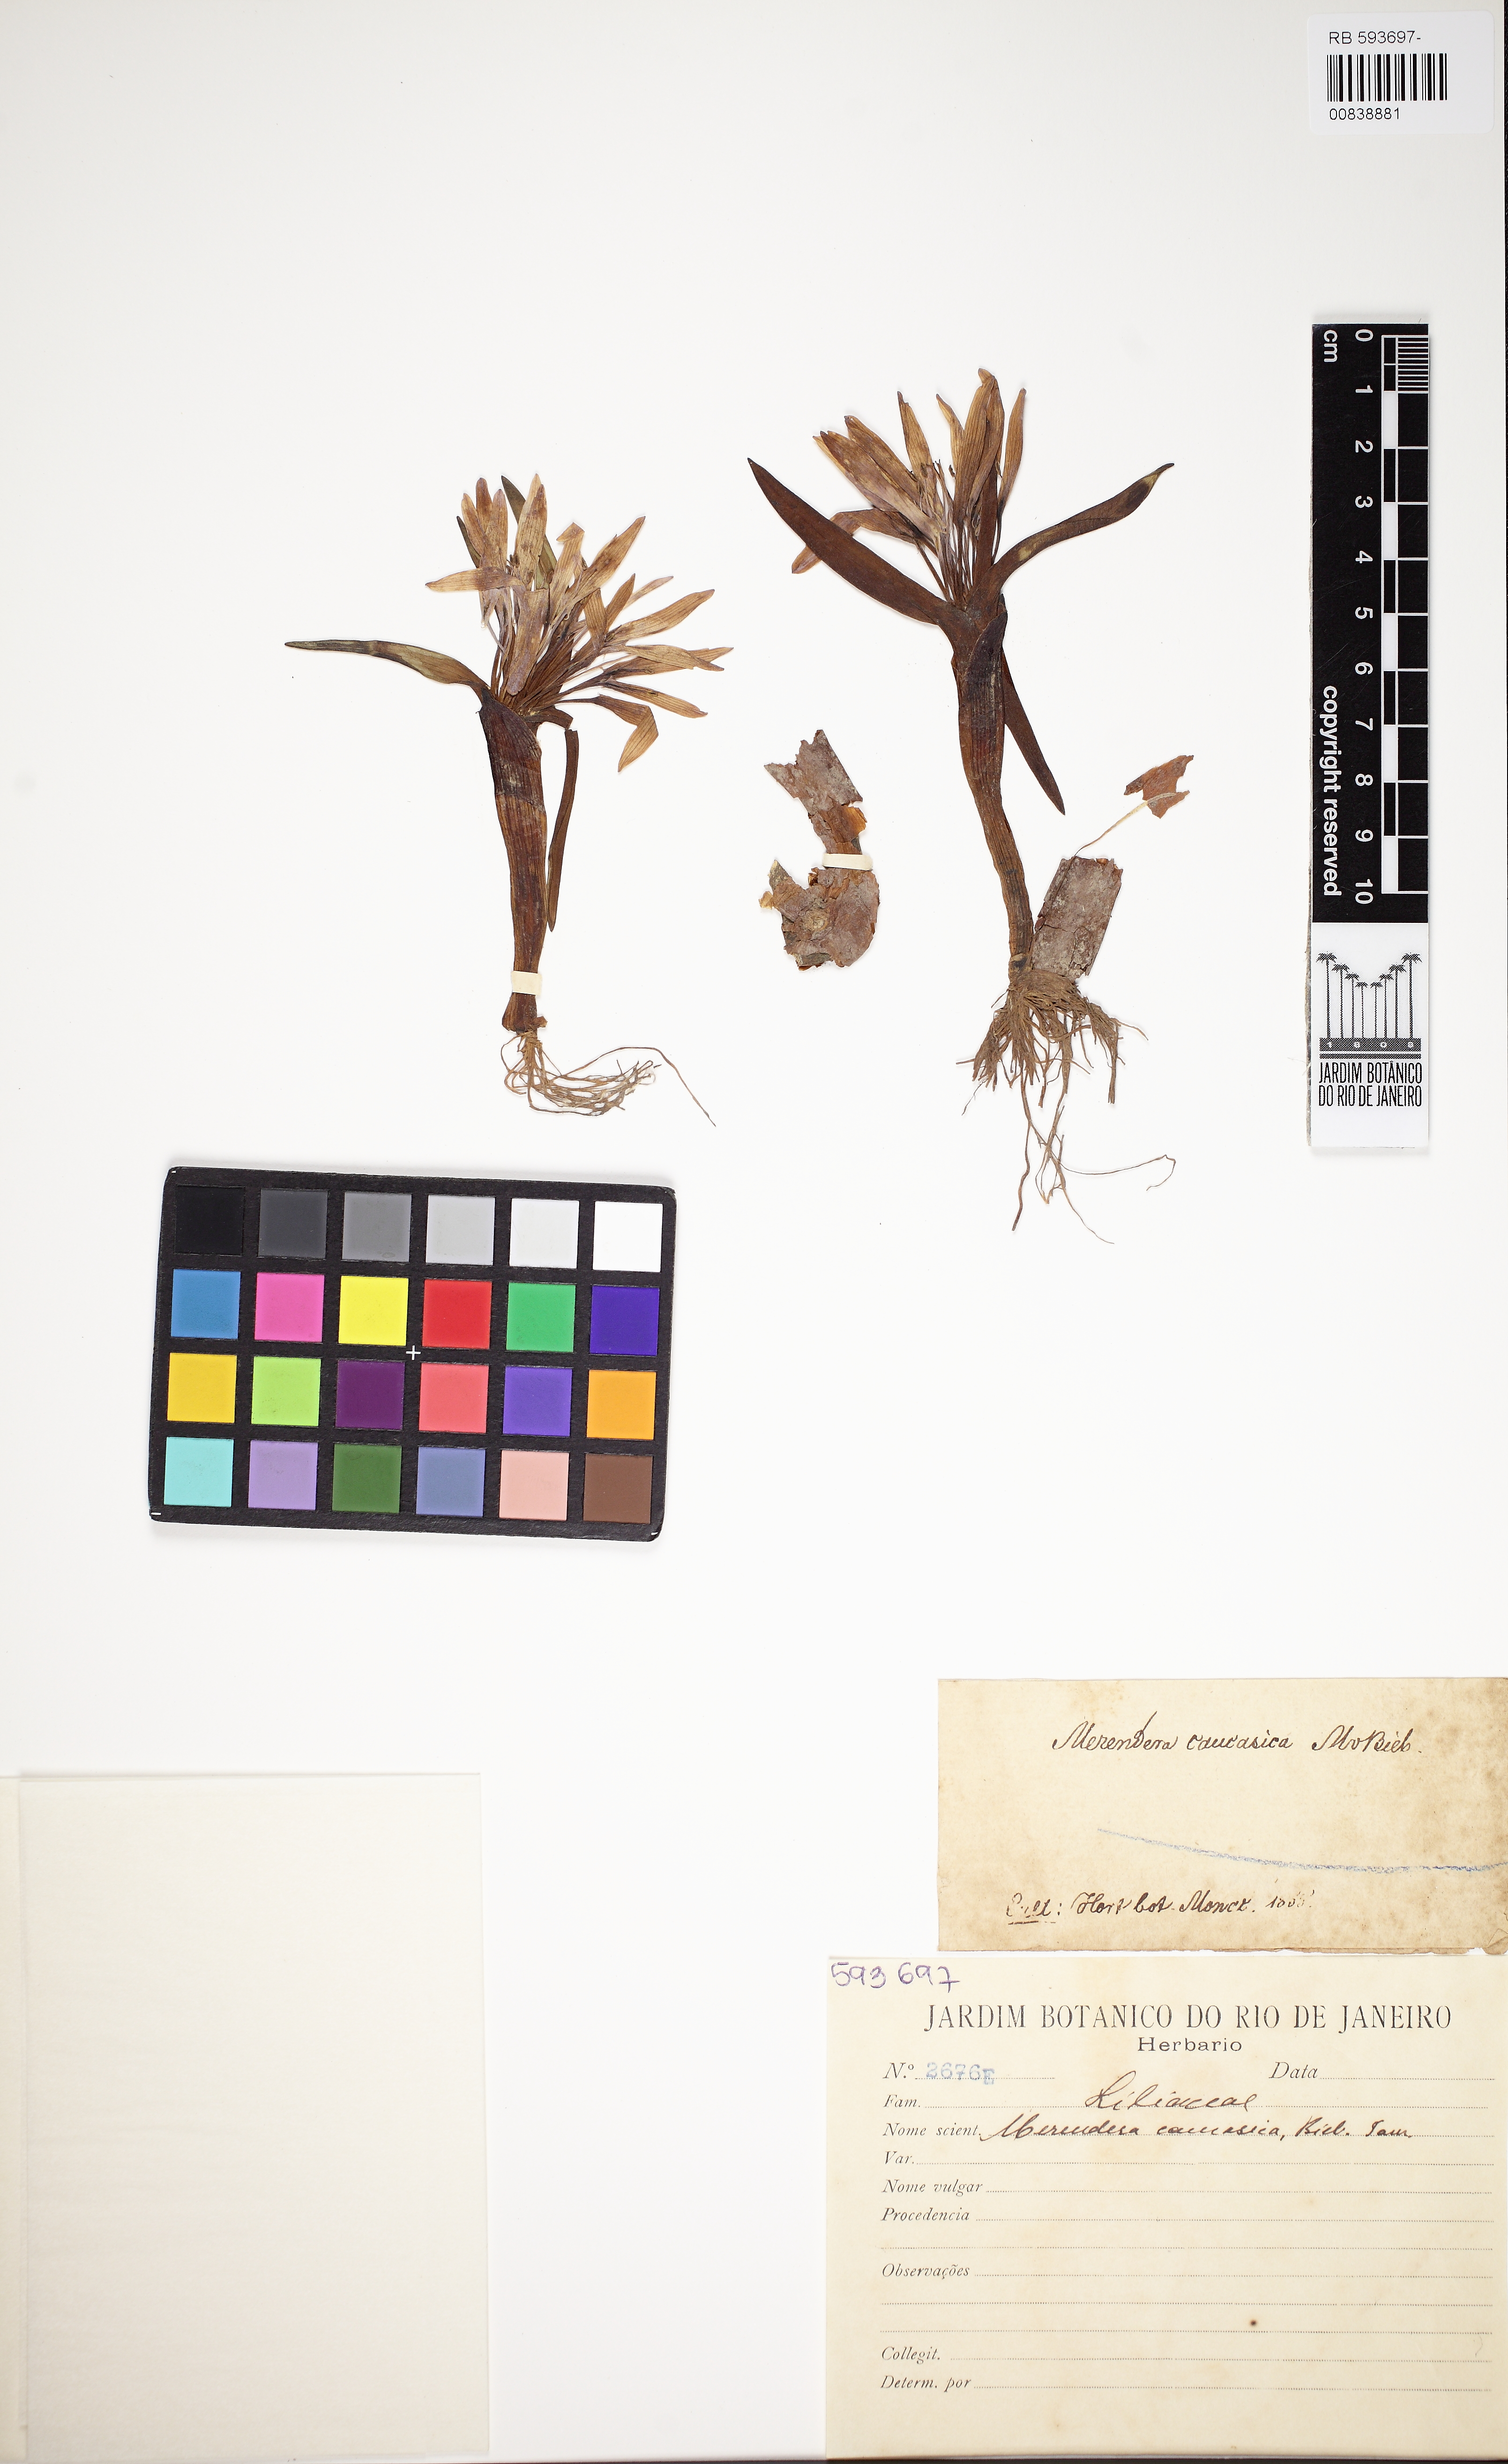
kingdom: Plantae
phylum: Tracheophyta
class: Liliopsida
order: Liliales
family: Colchicaceae
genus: Colchicum
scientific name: Colchicum trigynum
